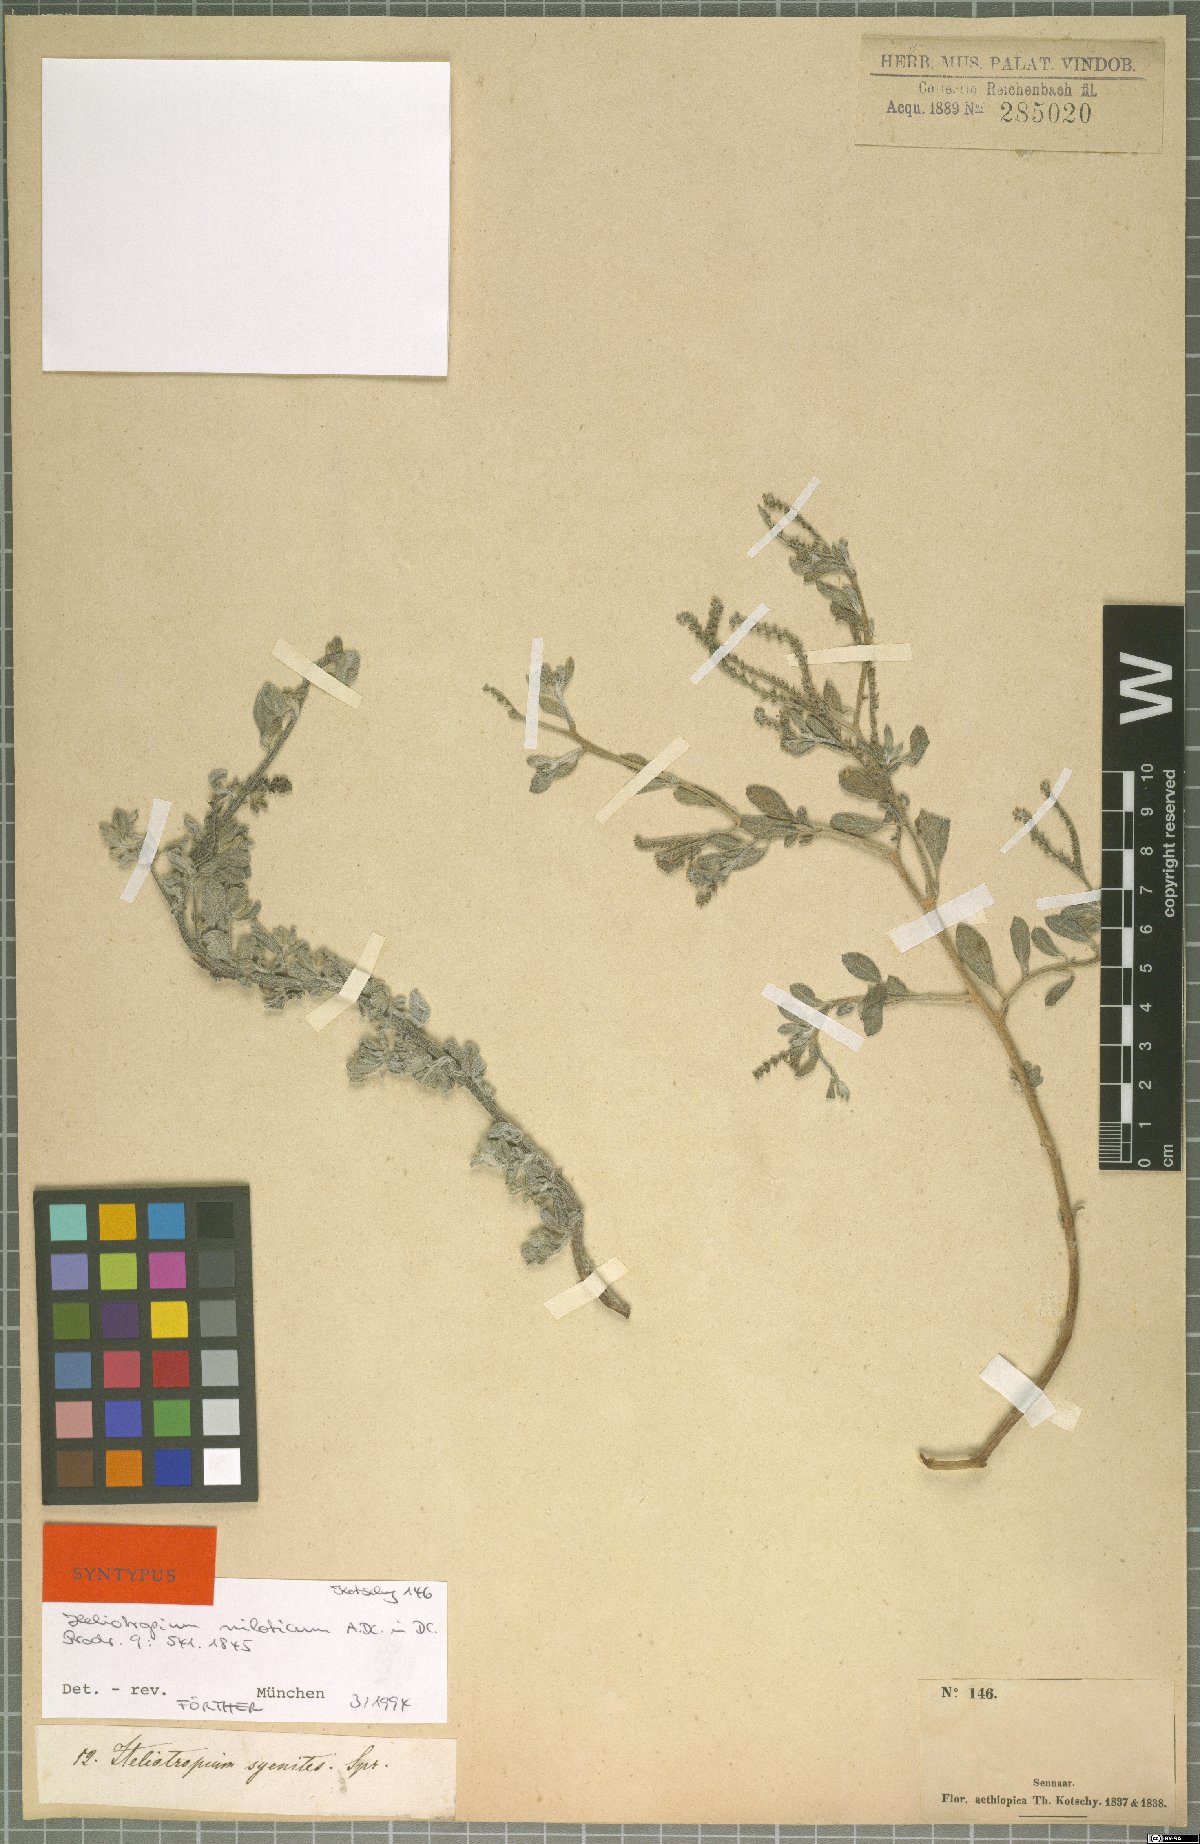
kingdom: Plantae
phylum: Tracheophyta
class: Magnoliopsida
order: Boraginales
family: Heliotropiaceae
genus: Euploca
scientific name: Euploca ovalifolia
